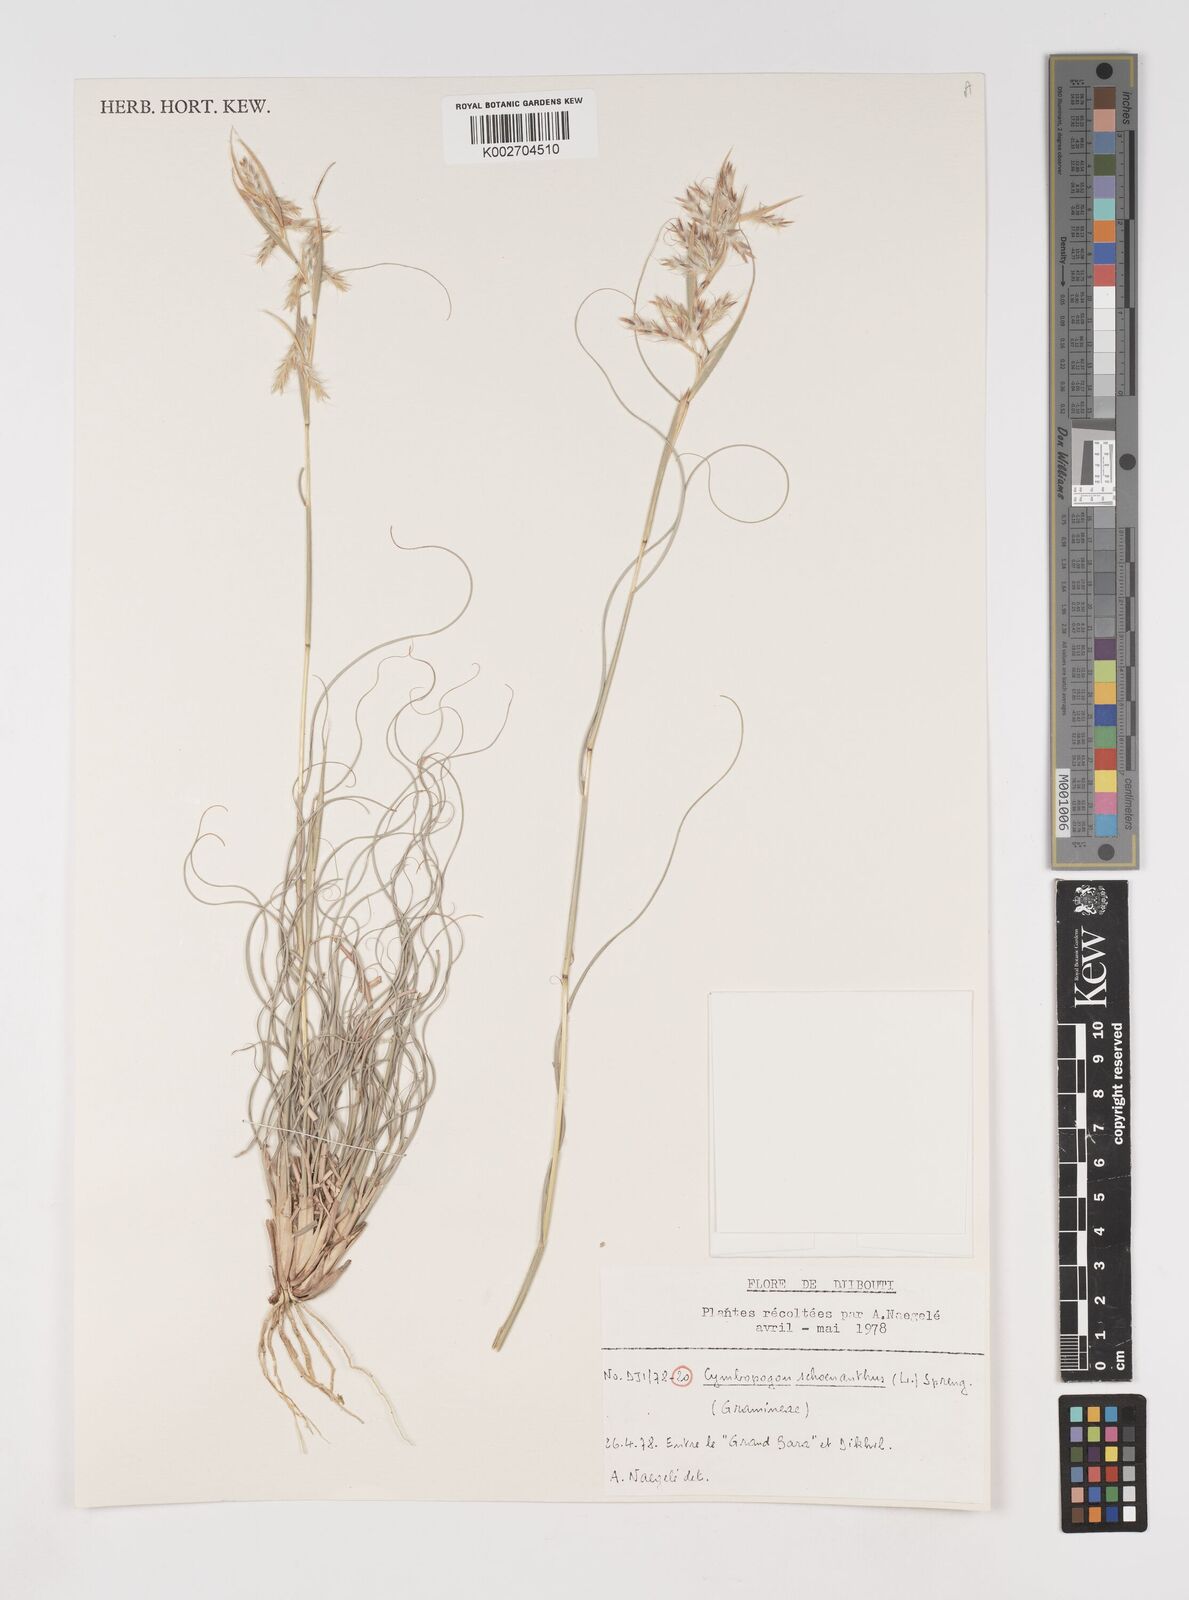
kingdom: Plantae
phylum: Tracheophyta
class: Liliopsida
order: Poales
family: Poaceae
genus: Cymbopogon
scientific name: Cymbopogon schoenanthus
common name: Geranium grass
